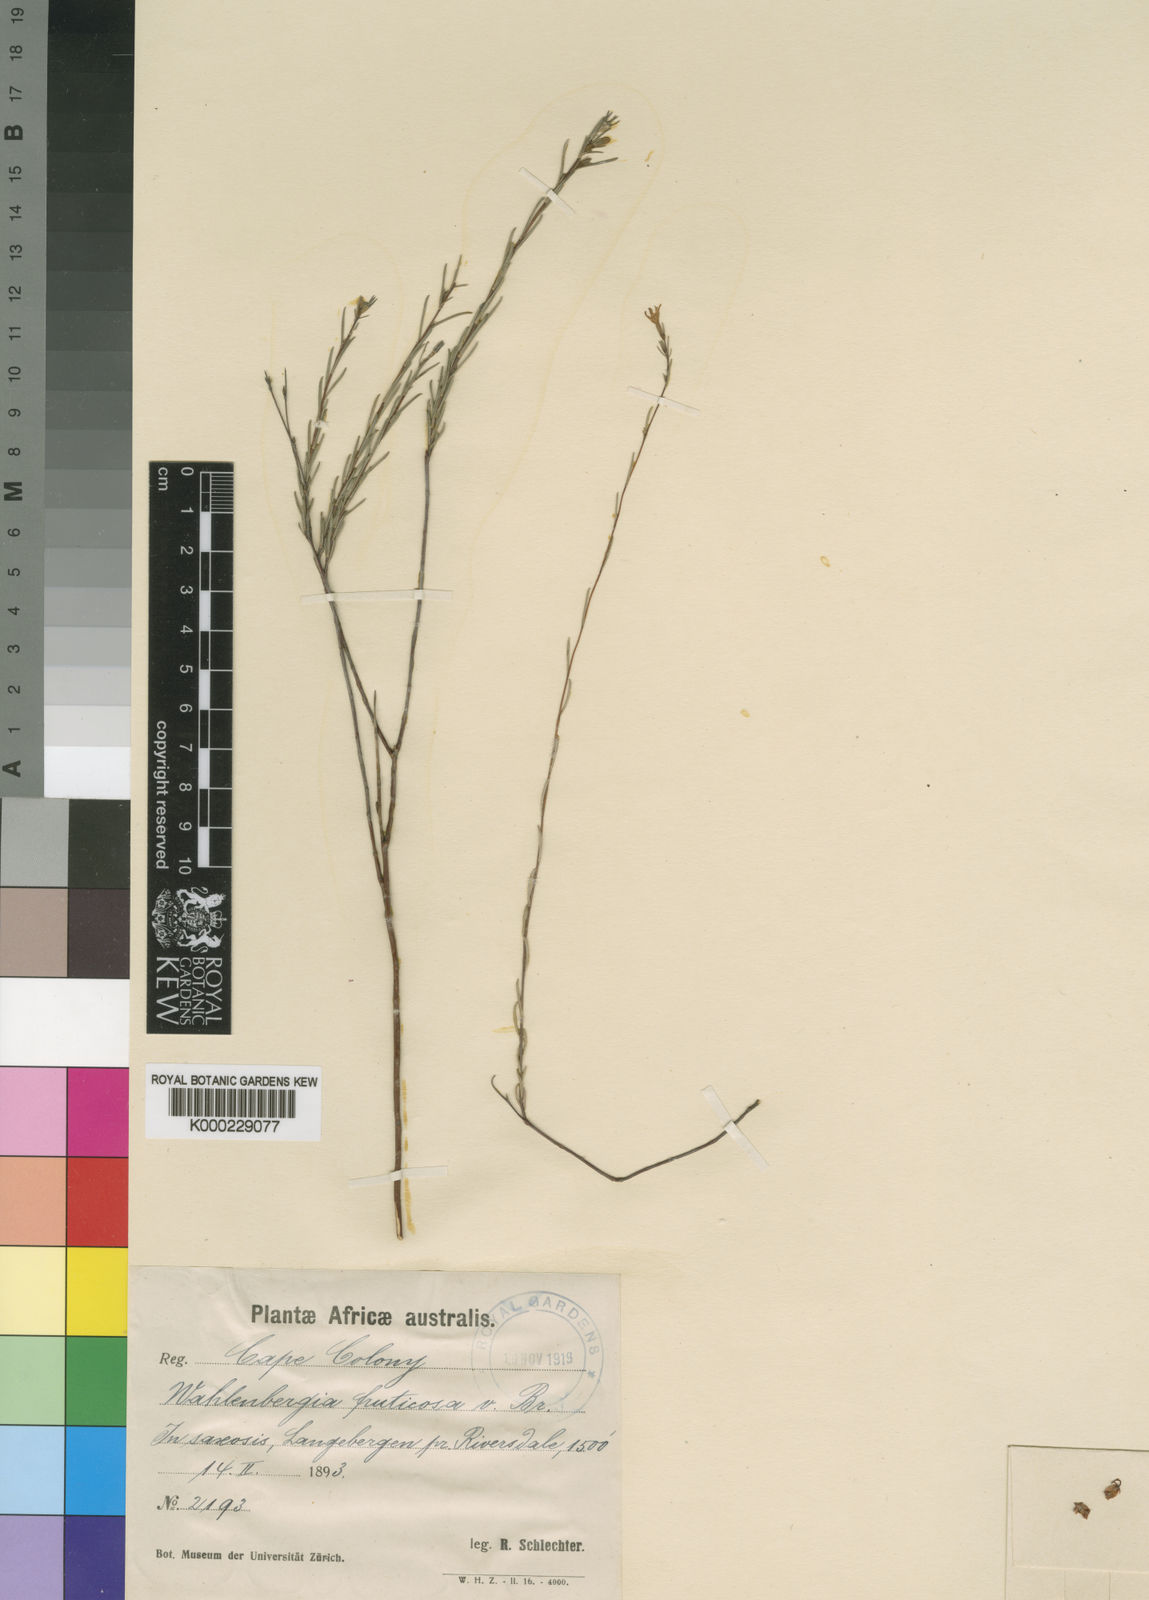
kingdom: Plantae
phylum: Tracheophyta
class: Magnoliopsida
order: Asterales
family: Campanulaceae
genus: Wahlenbergia
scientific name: Wahlenbergia fruticosa
